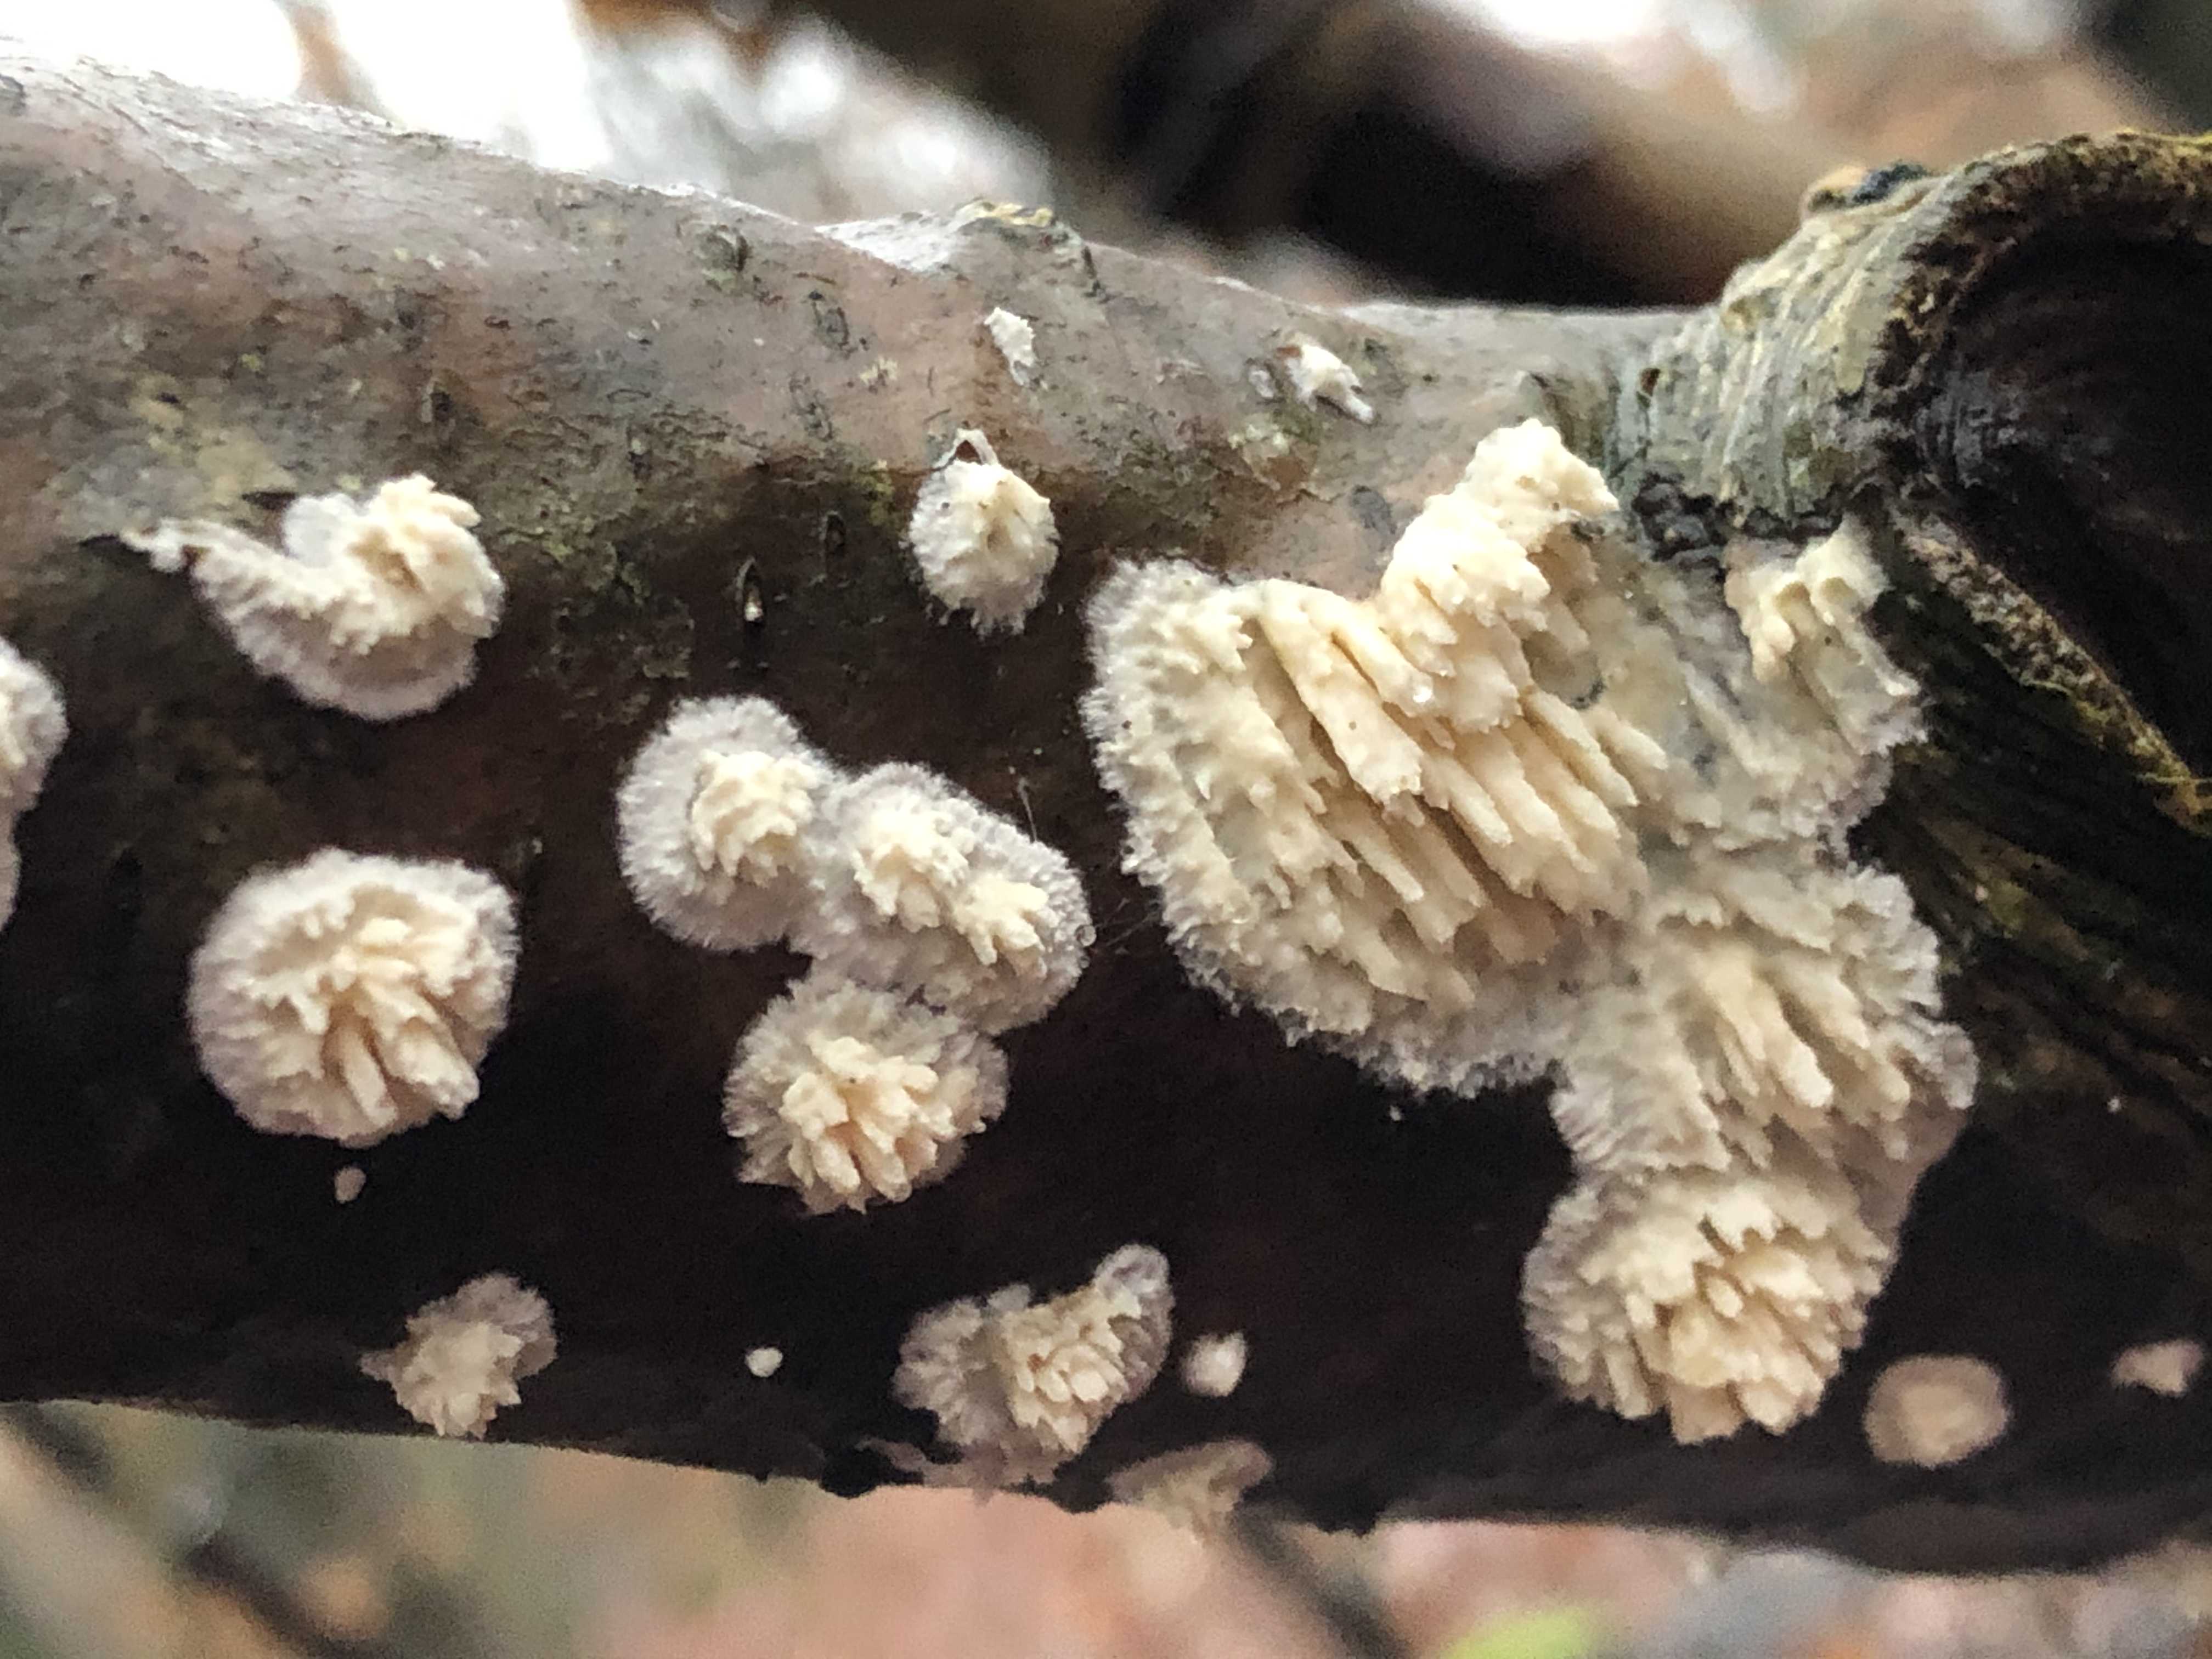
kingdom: Fungi
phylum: Basidiomycota
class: Agaricomycetes
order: Hymenochaetales
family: Schizoporaceae
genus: Xylodon
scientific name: Xylodon radula
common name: grovtandet kalkskind
